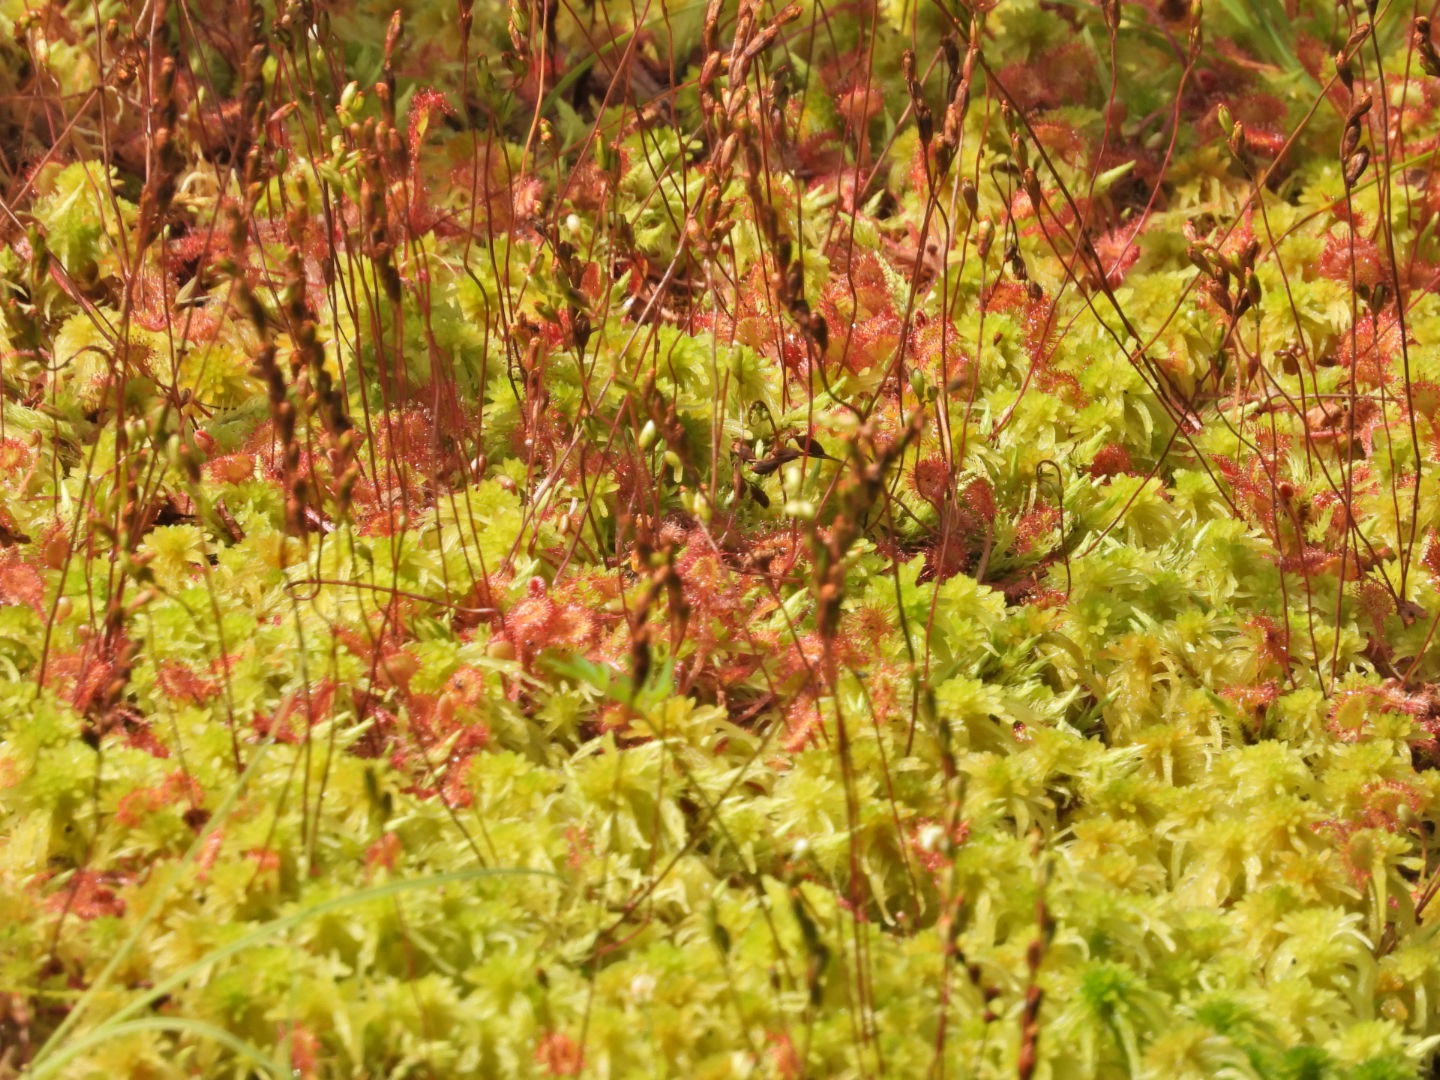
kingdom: Plantae
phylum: Tracheophyta
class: Magnoliopsida
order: Caryophyllales
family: Droseraceae
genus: Drosera
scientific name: Drosera rotundifolia
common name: Rundbladet soldug
